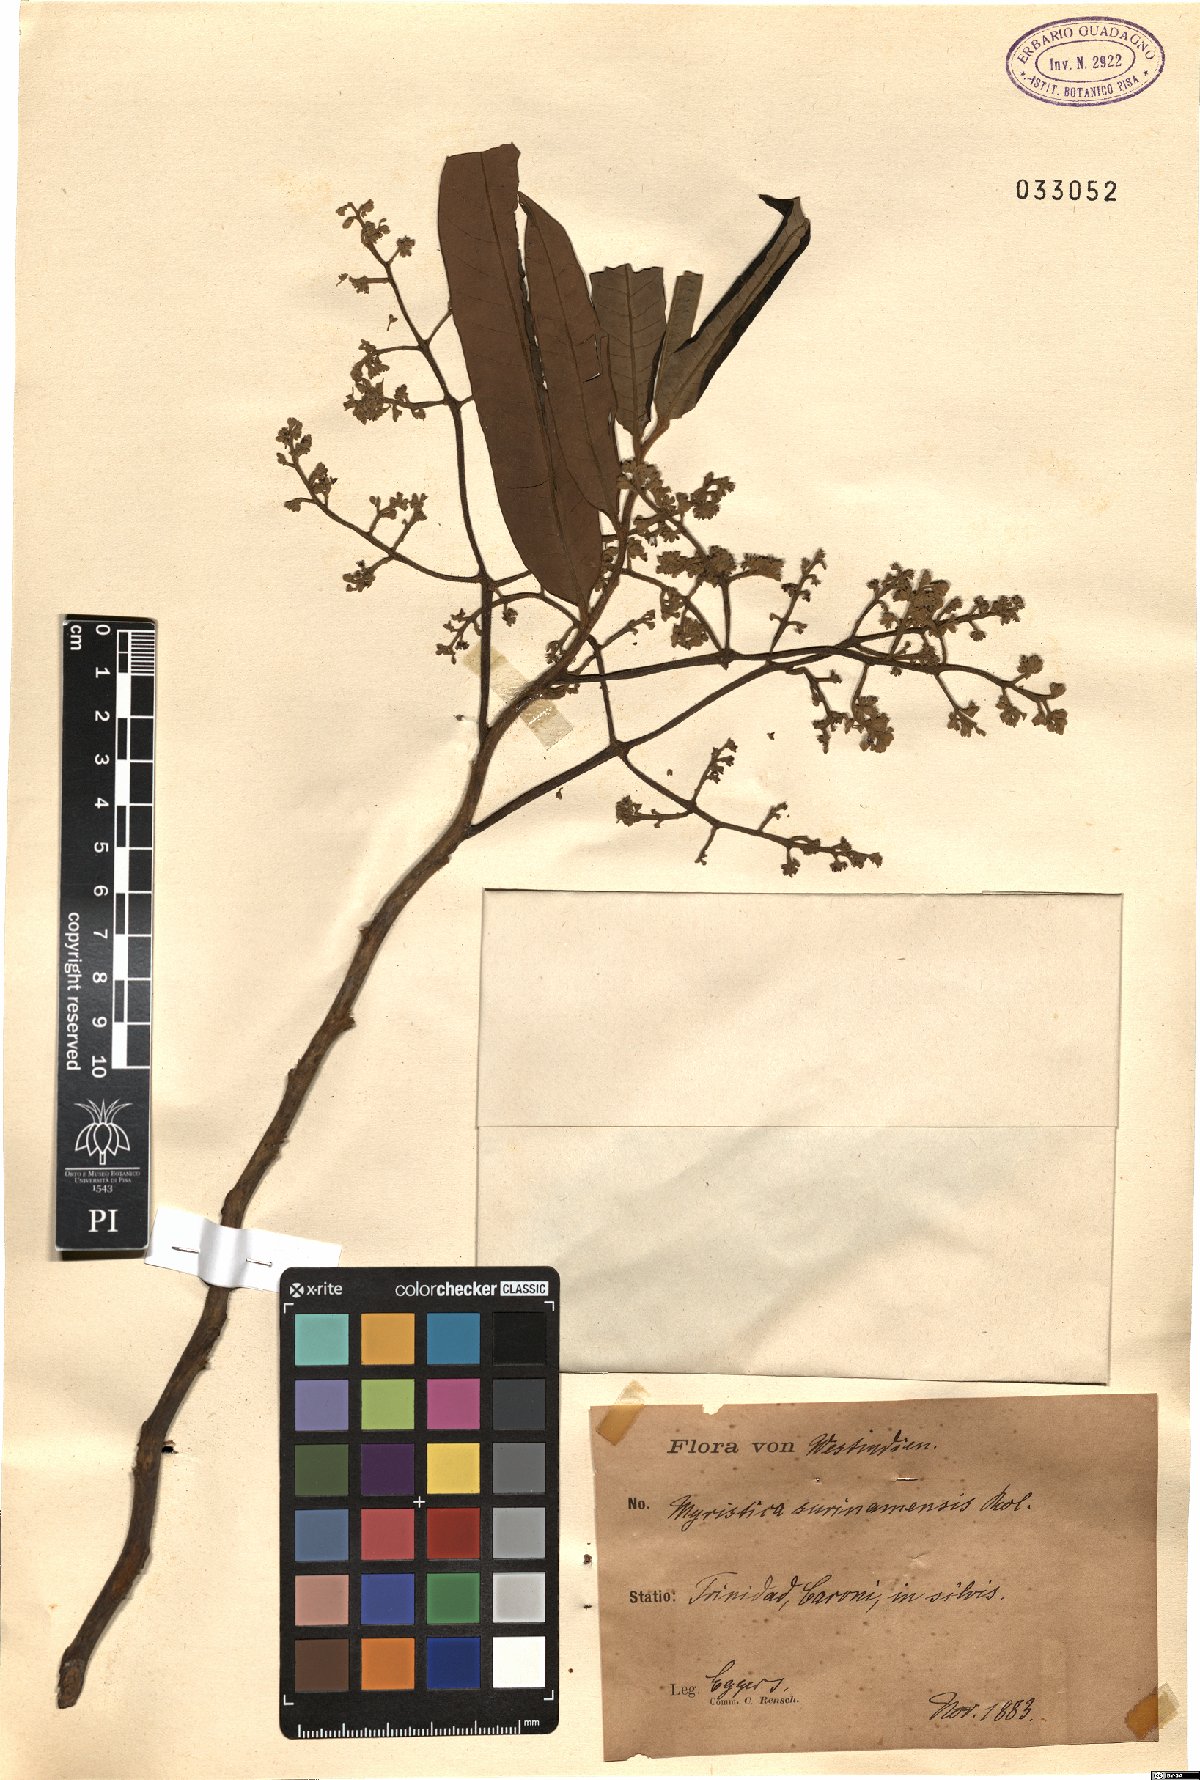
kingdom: Plantae
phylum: Tracheophyta
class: Magnoliopsida
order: Magnoliales
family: Myristicaceae
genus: Virola
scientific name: Virola surinamensis
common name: Baboonwood
